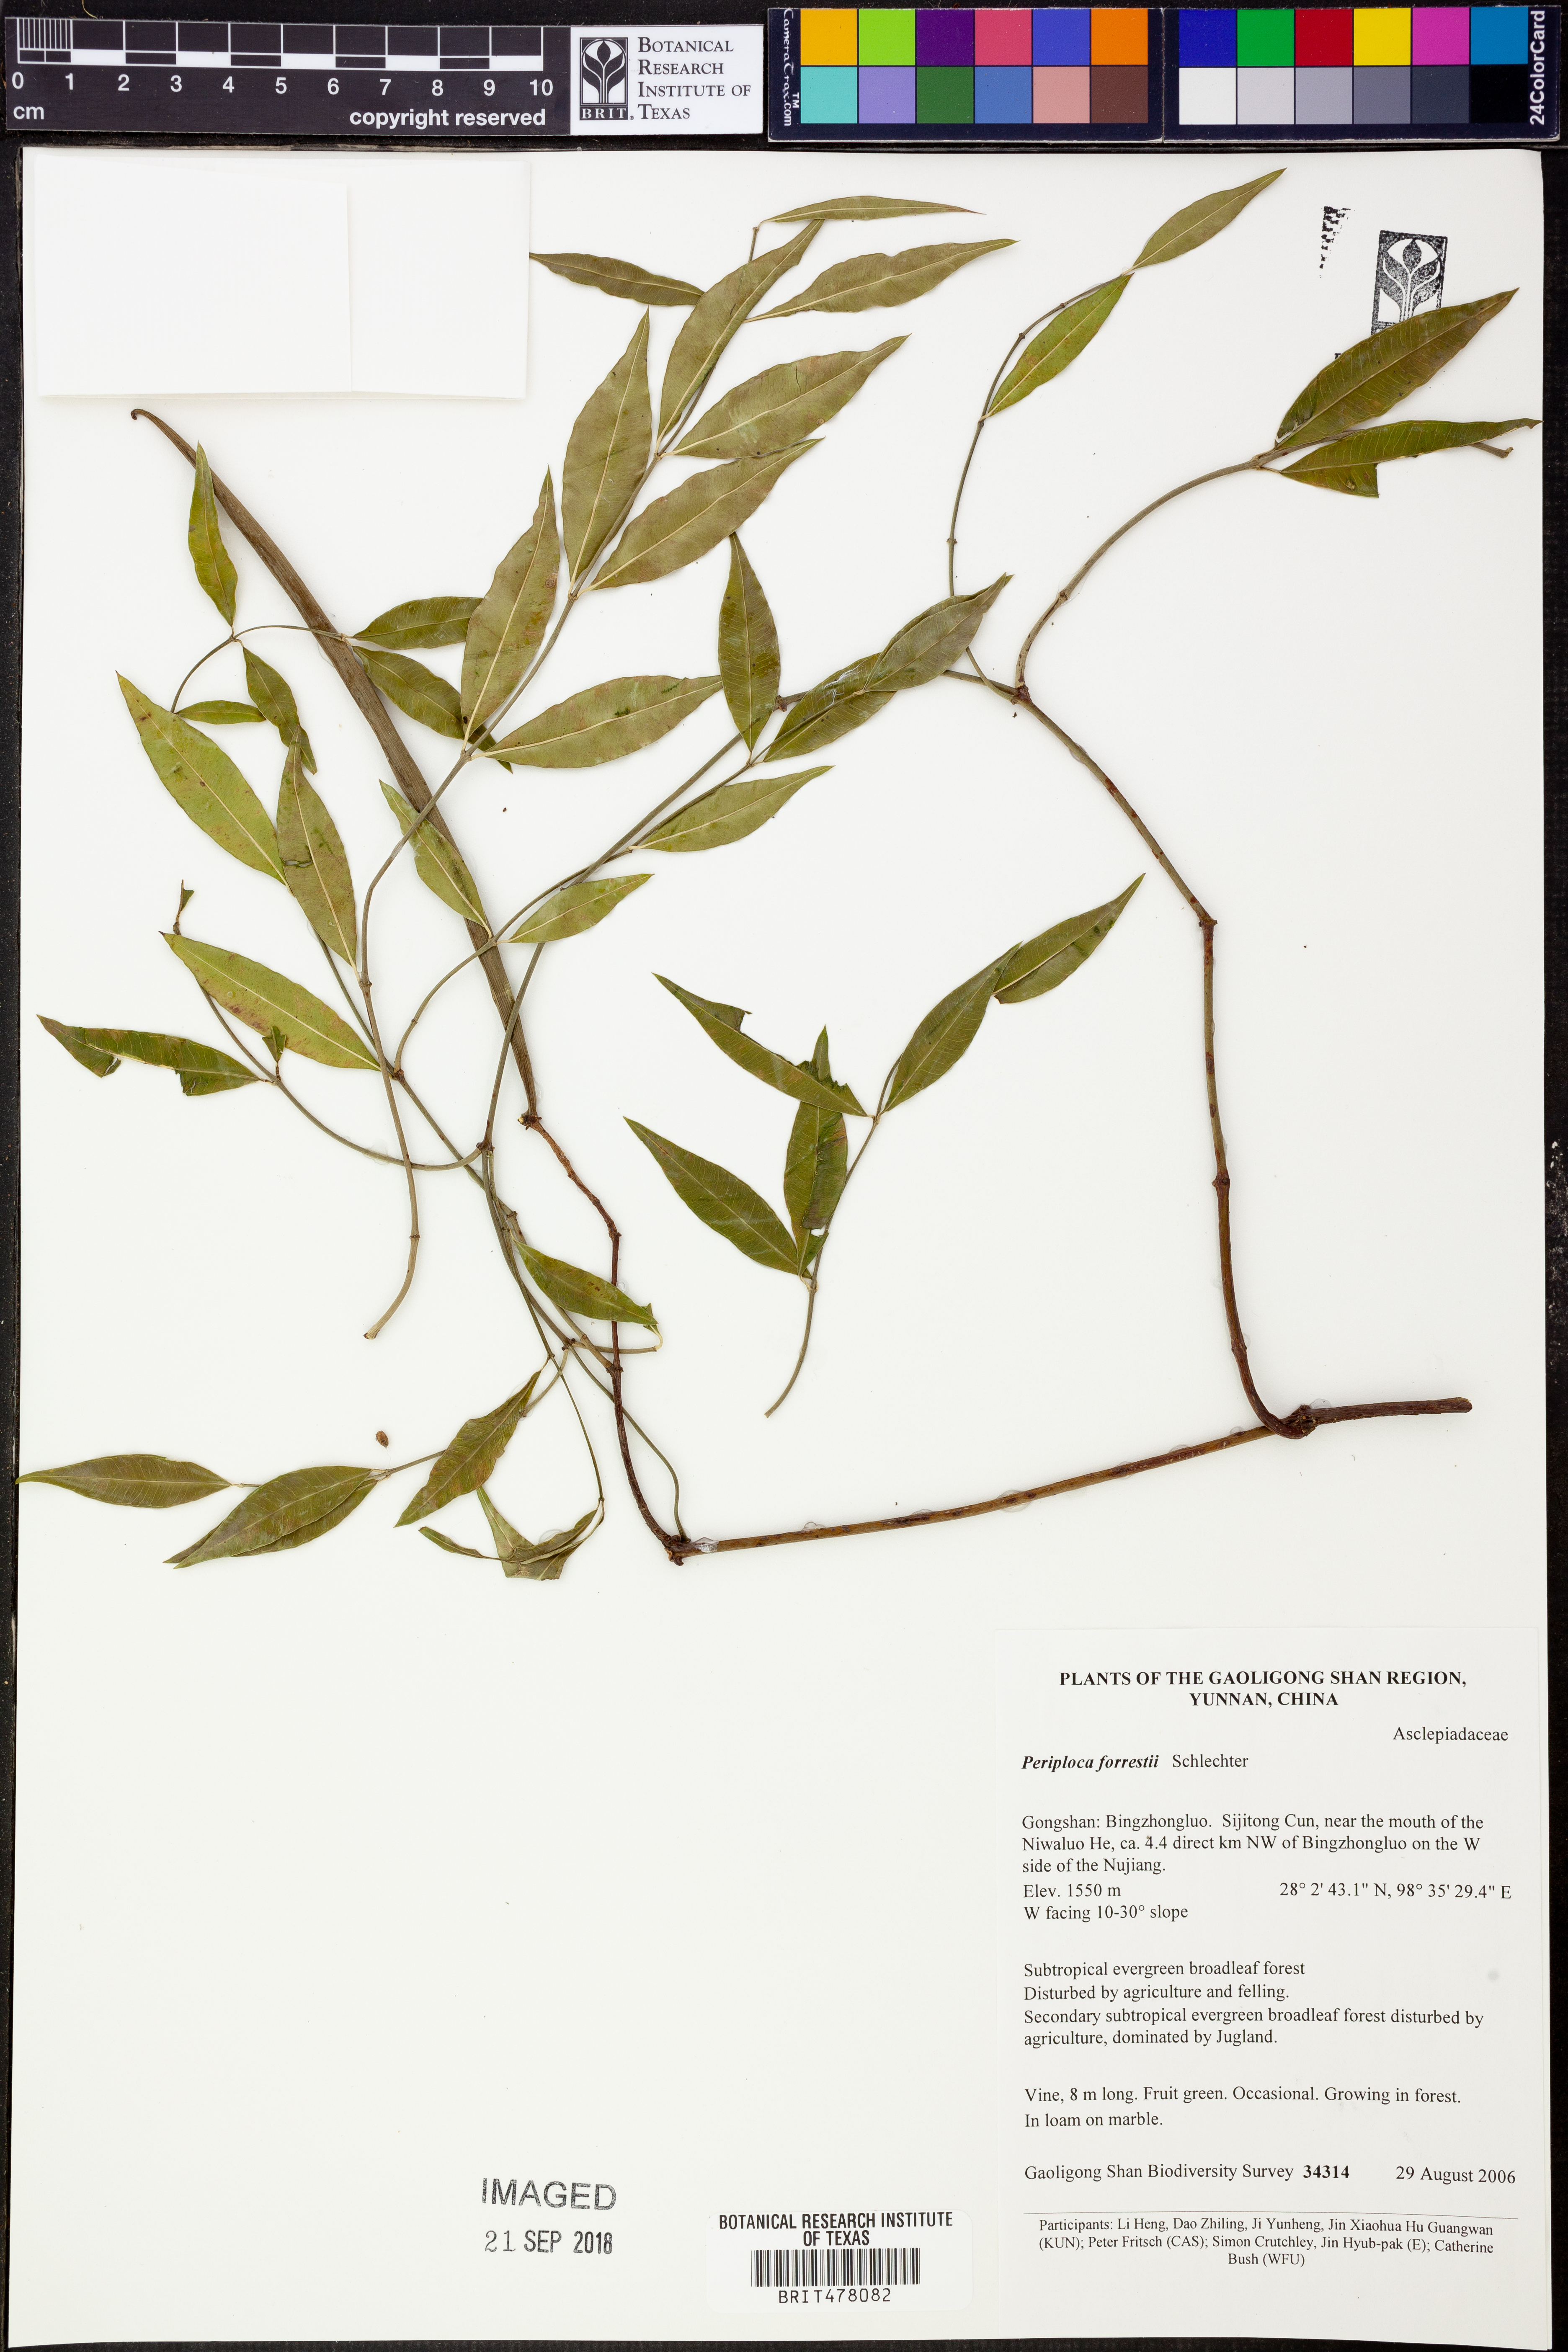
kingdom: Plantae
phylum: Tracheophyta
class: Magnoliopsida
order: Gentianales
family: Apocynaceae
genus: Periploca
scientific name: Periploca forrestii
